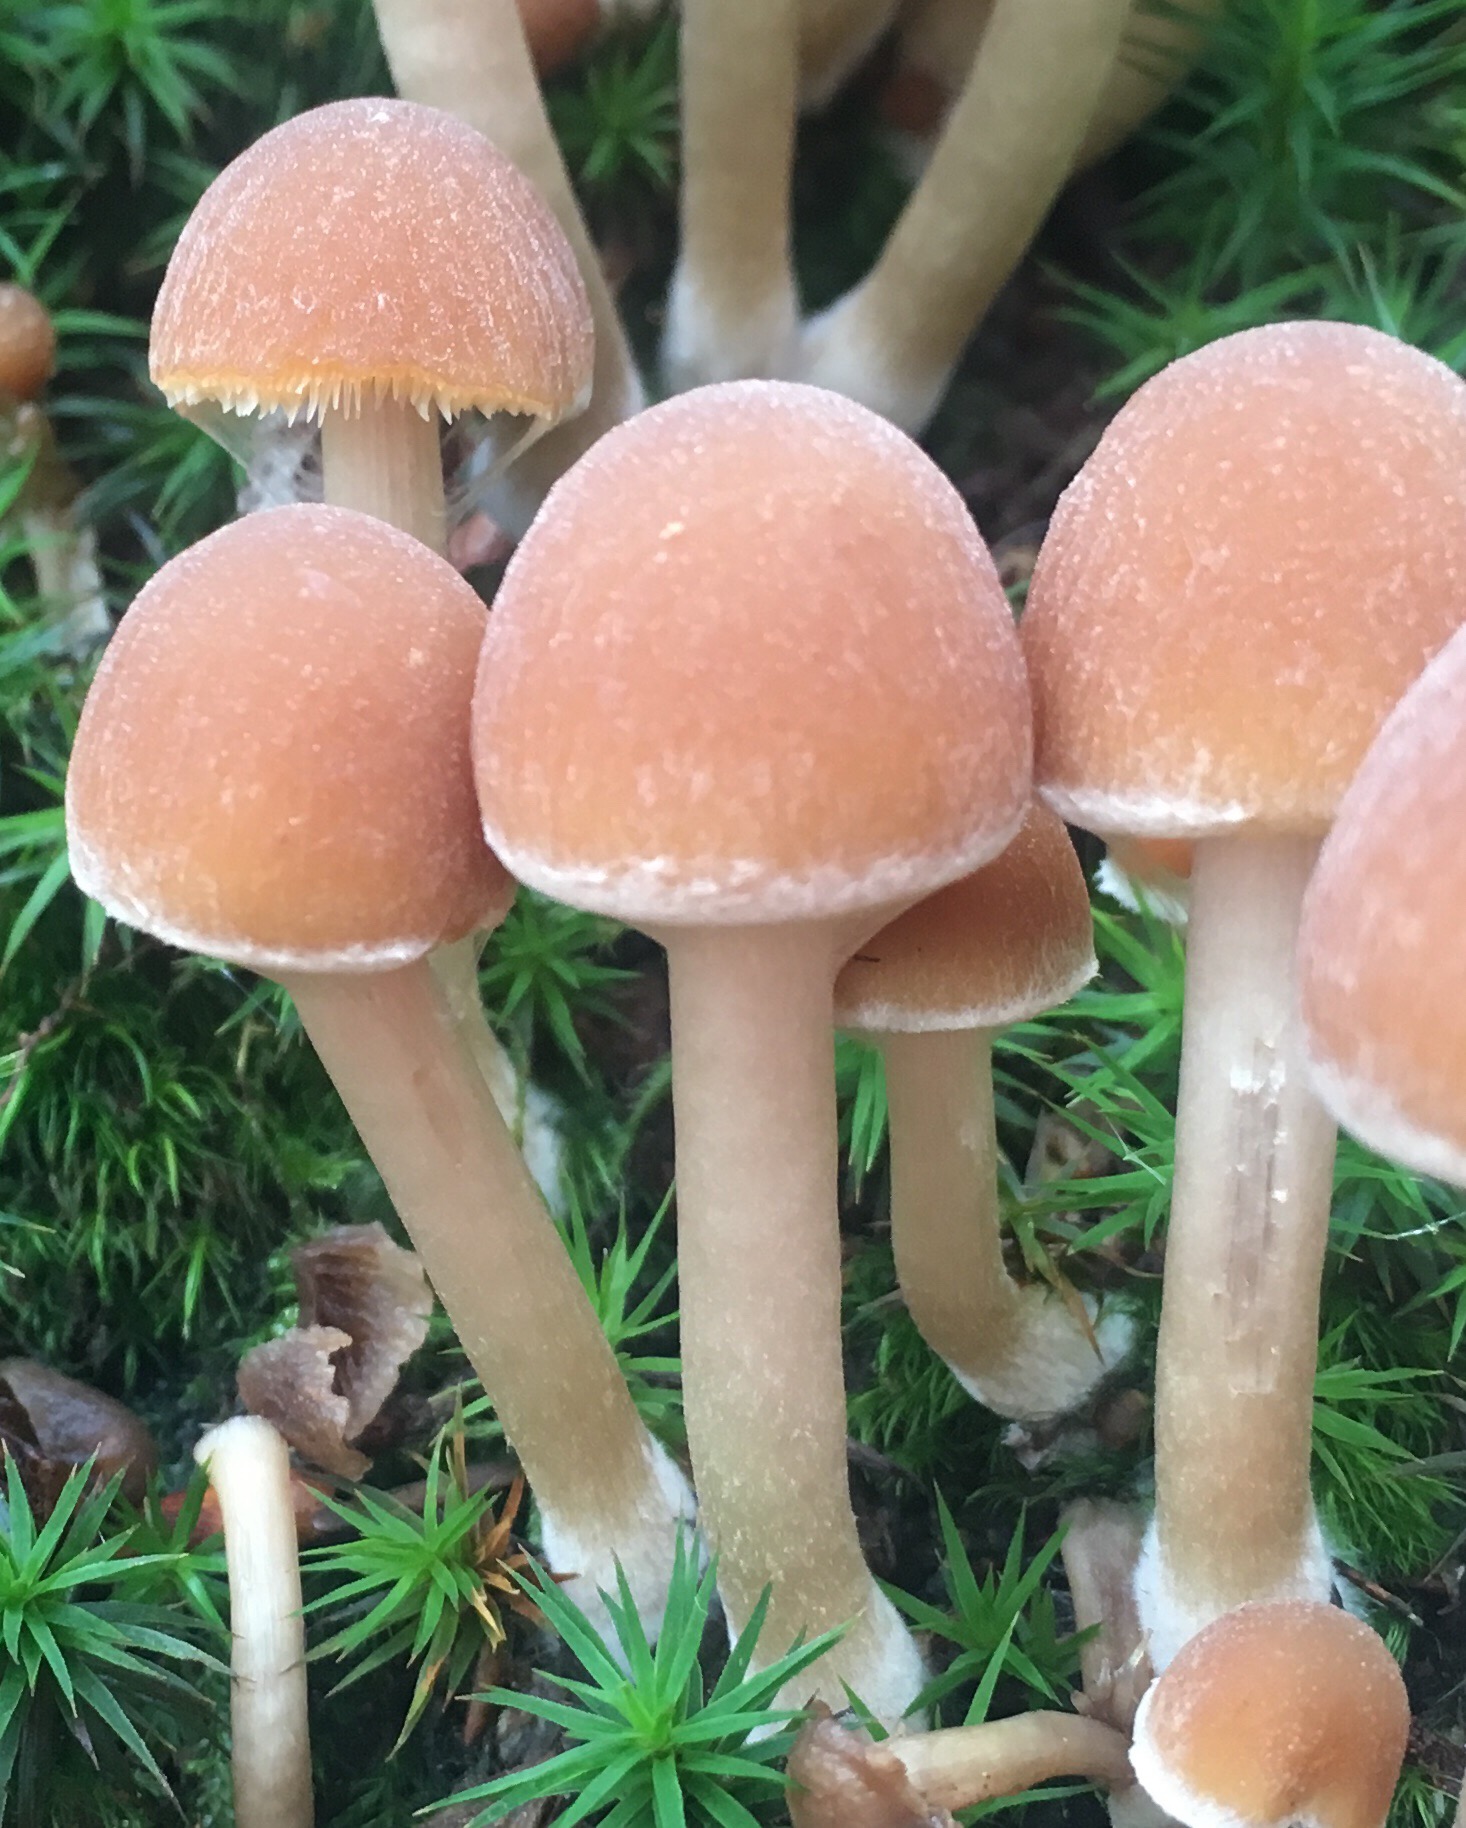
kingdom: Fungi
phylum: Basidiomycota
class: Agaricomycetes
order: Agaricales
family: Psathyrellaceae
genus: Psathyrella
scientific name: Psathyrella piluliformis
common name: lysstokket mørkhat
